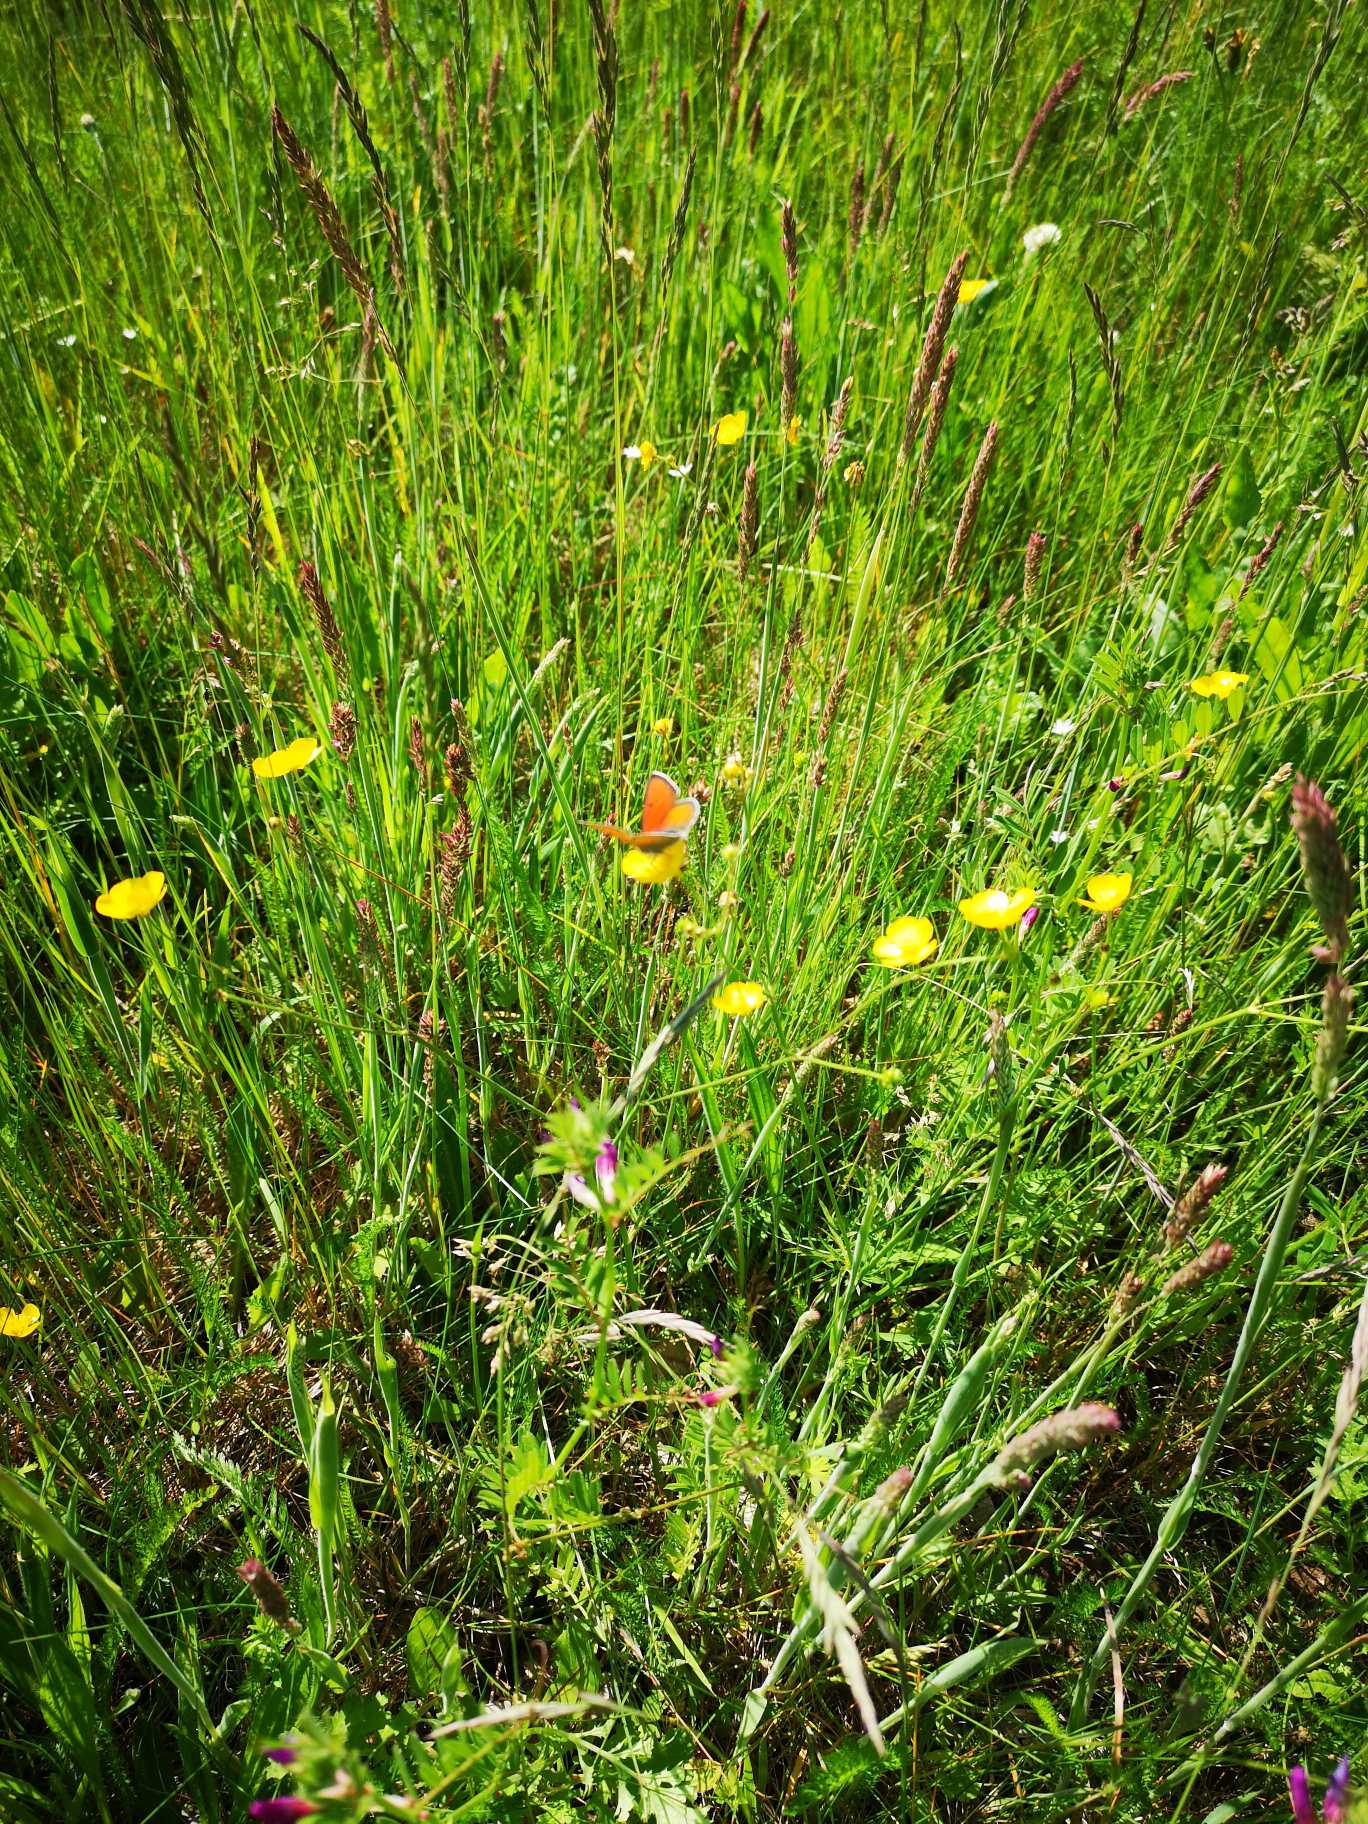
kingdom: Animalia
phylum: Arthropoda
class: Insecta
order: Lepidoptera
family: Lycaenidae
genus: Palaeochrysophanus
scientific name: Palaeochrysophanus hippothoe
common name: Violetrandet ildfugl
